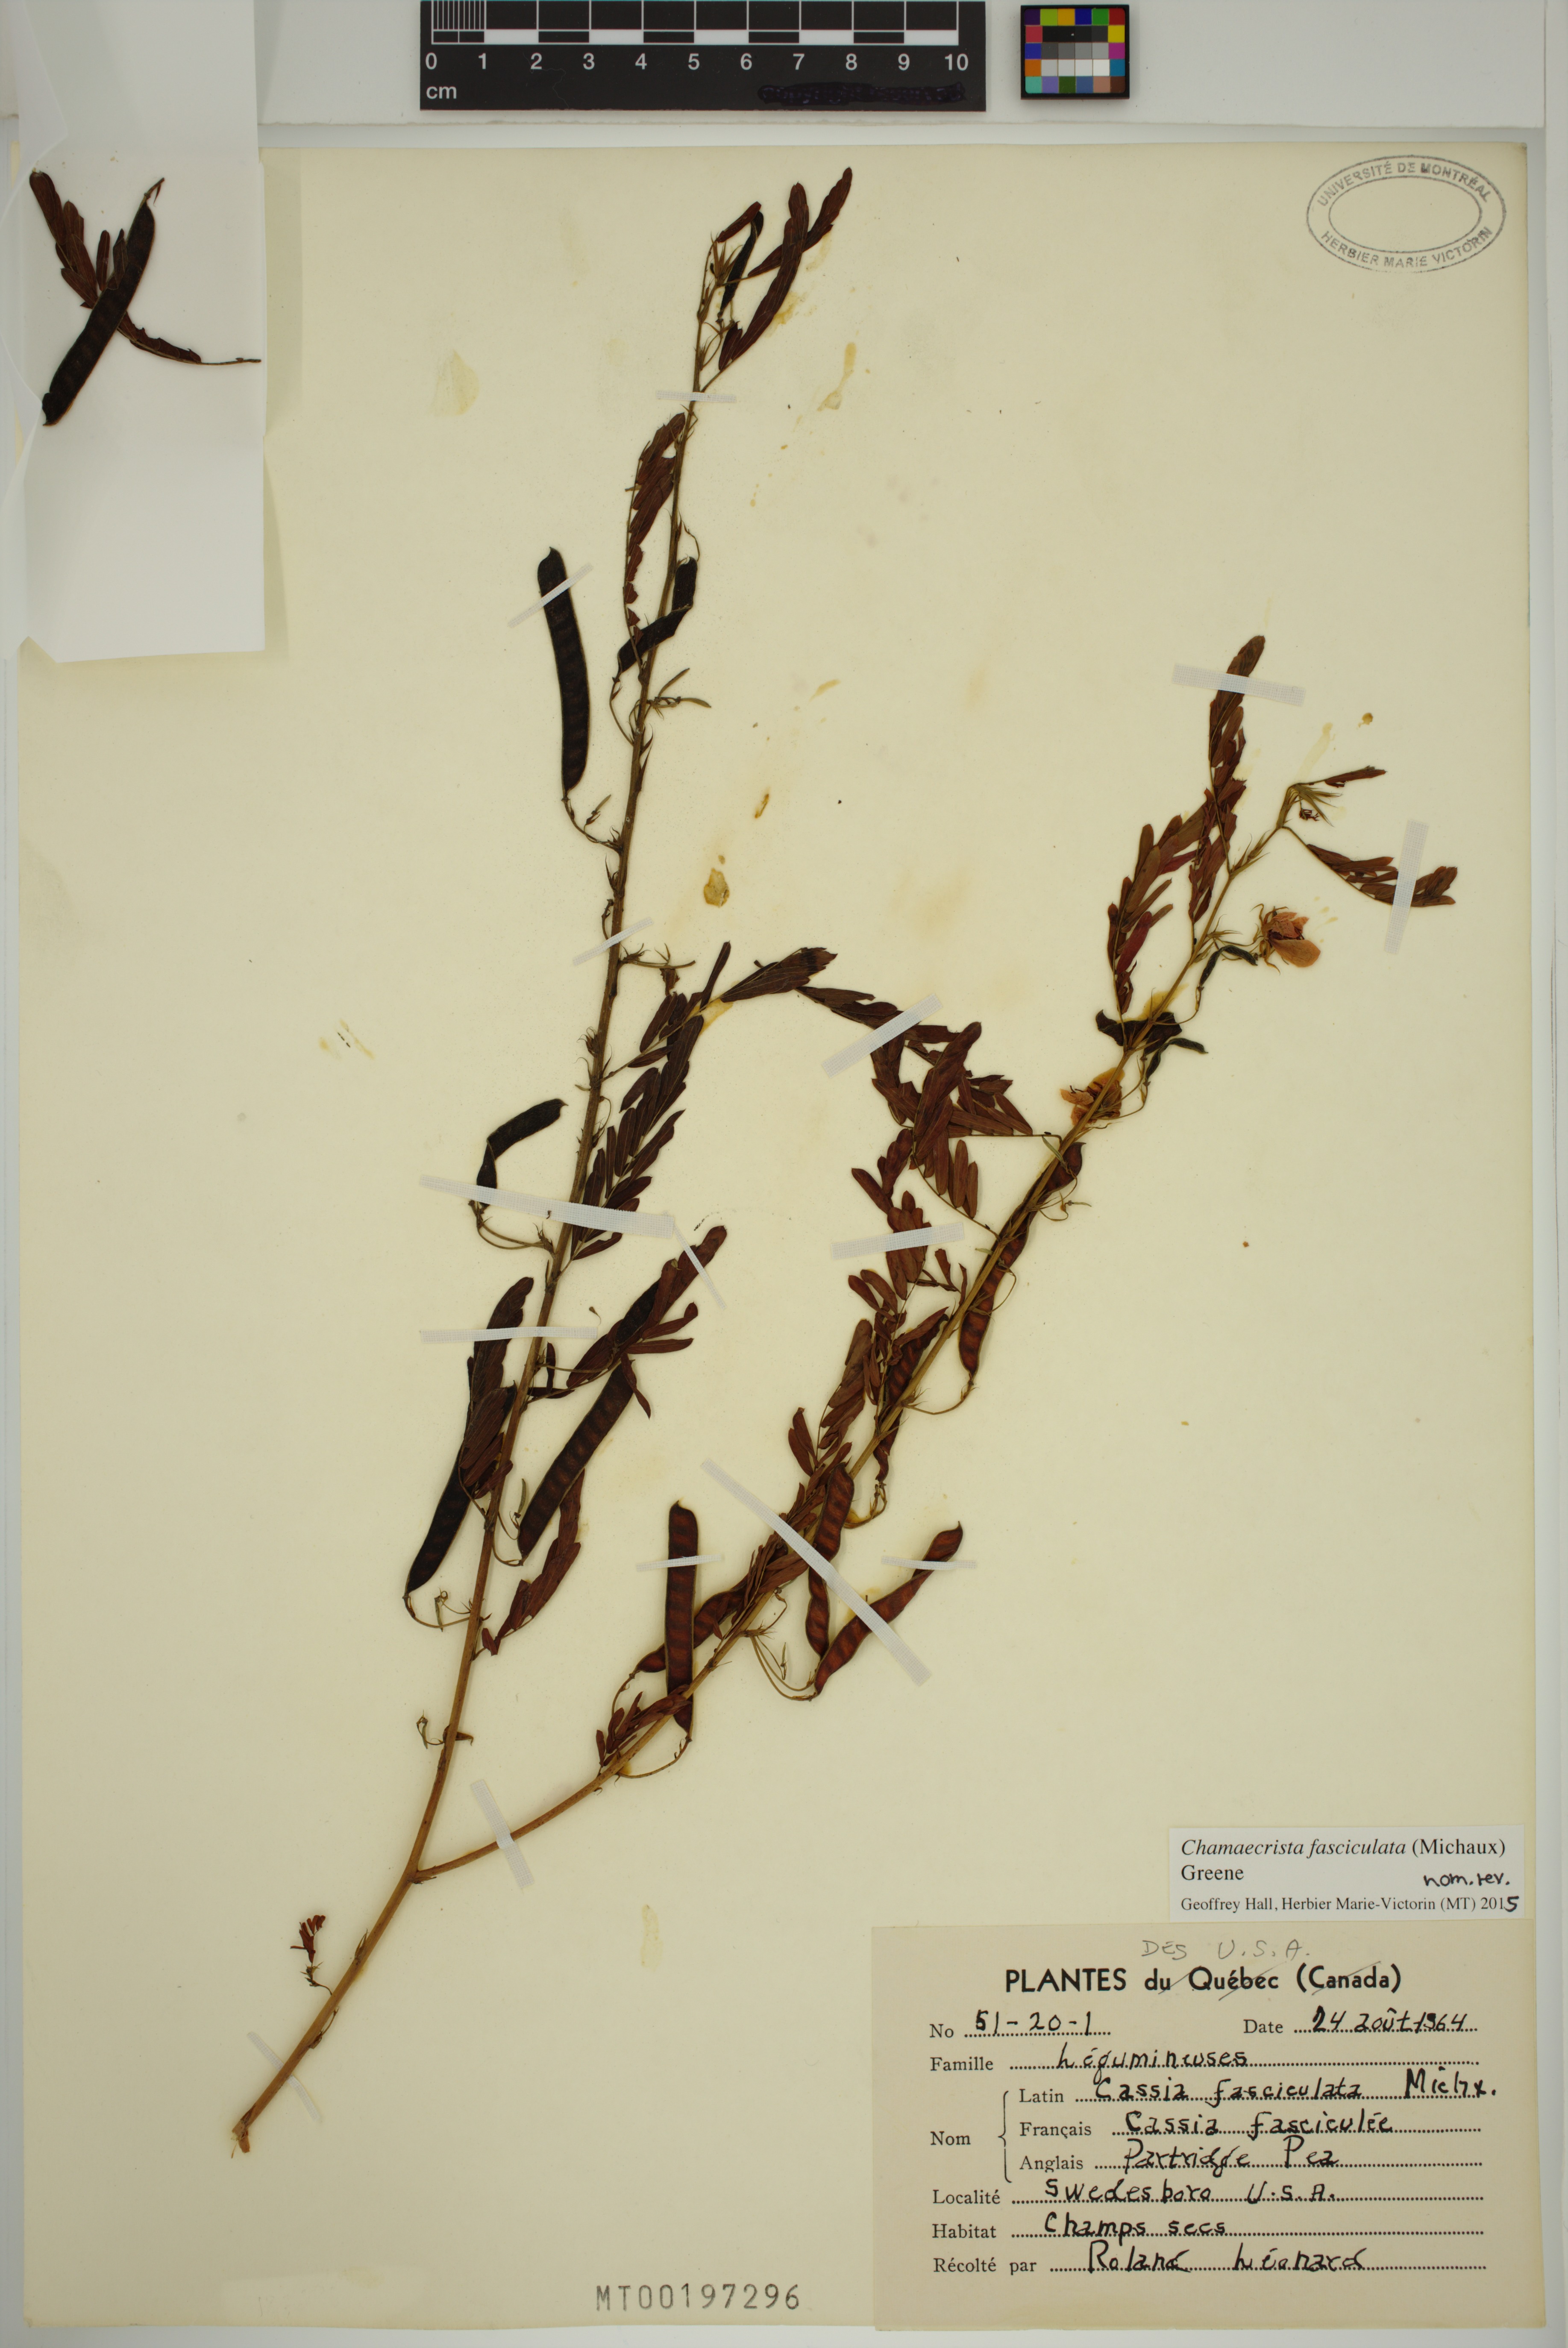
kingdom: Plantae
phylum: Tracheophyta
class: Magnoliopsida
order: Fabales
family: Fabaceae
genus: Chamaecrista
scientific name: Chamaecrista fasciculata
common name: Golden cassia
